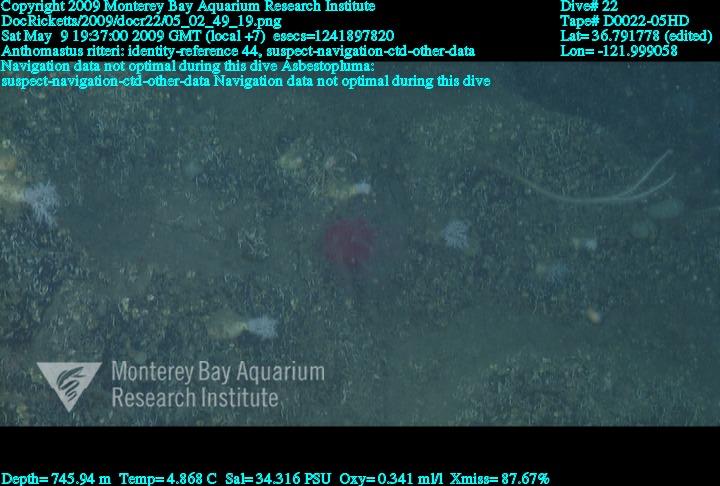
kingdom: Animalia
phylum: Porifera
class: Demospongiae
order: Poecilosclerida
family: Cladorhizidae
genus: Asbestopluma
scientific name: Asbestopluma
